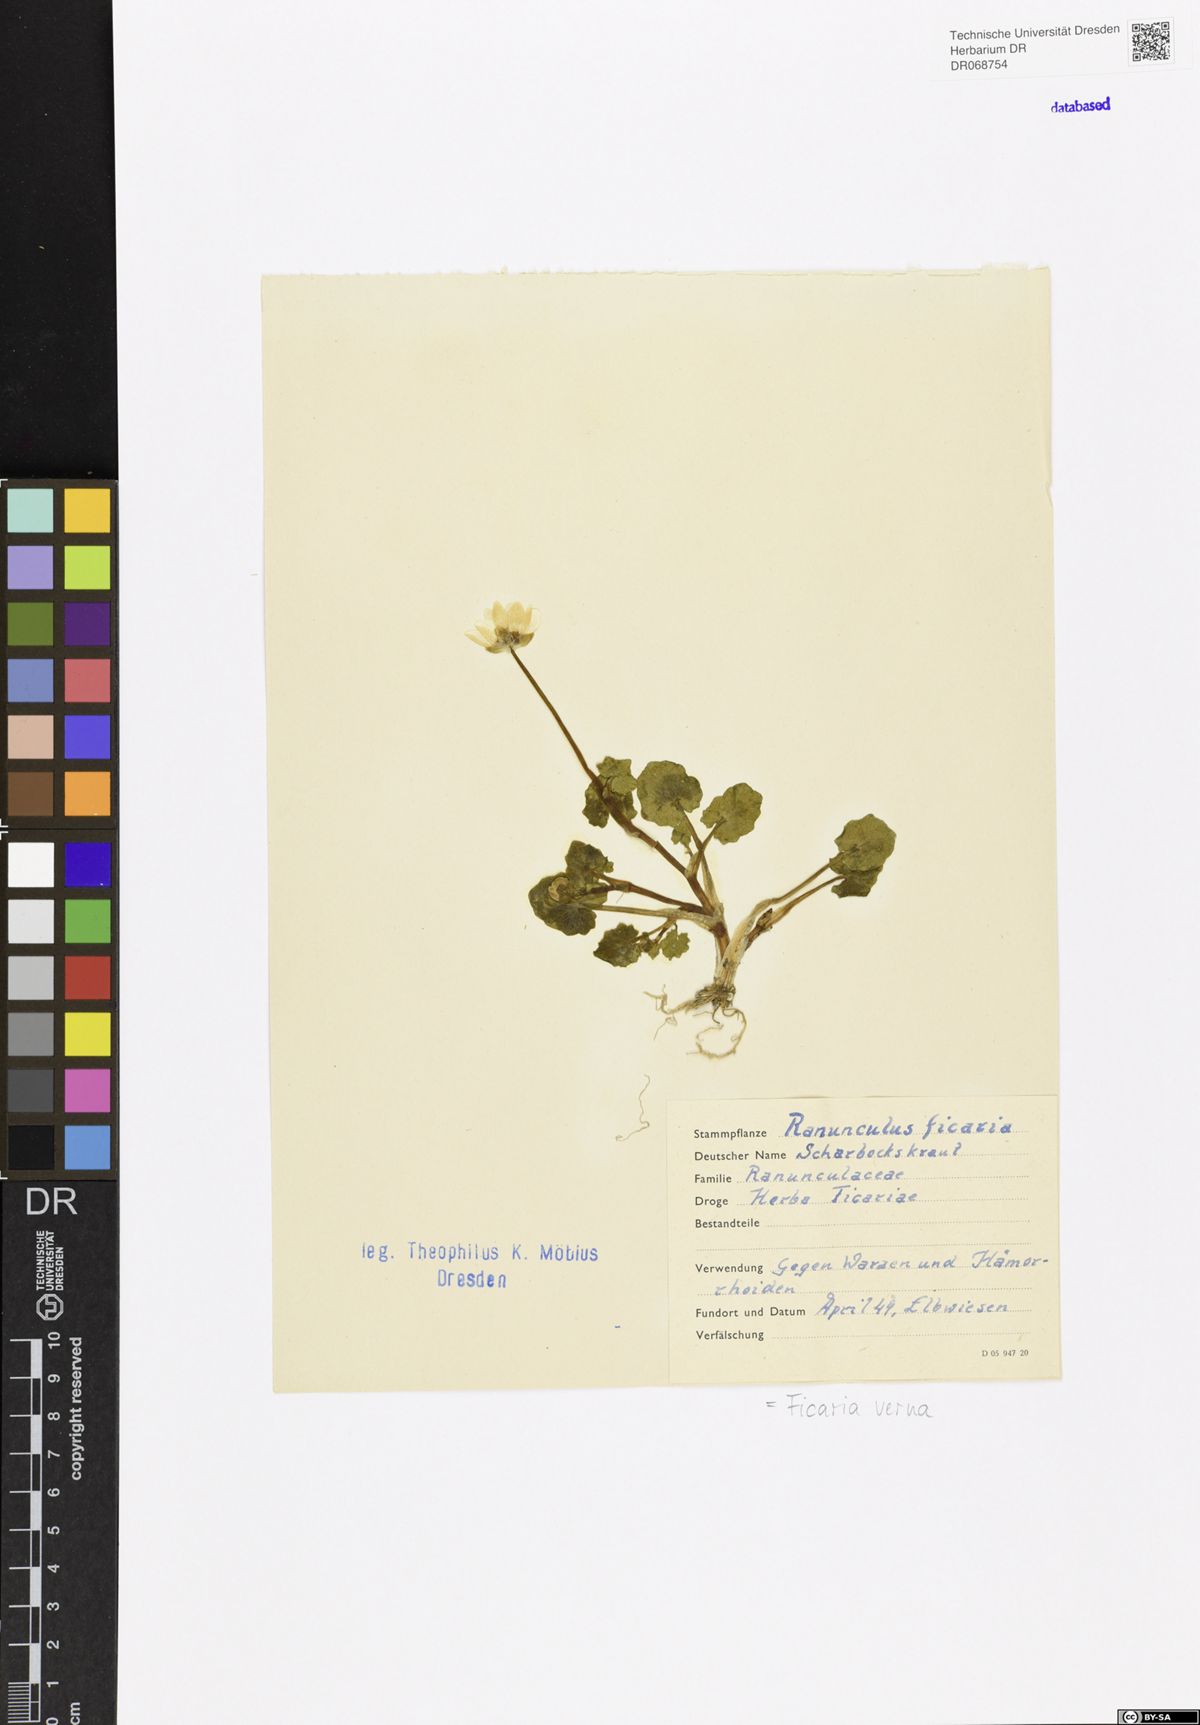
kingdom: Plantae
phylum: Tracheophyta
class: Magnoliopsida
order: Ranunculales
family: Ranunculaceae
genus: Ficaria
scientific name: Ficaria verna
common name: Lesser celandine
